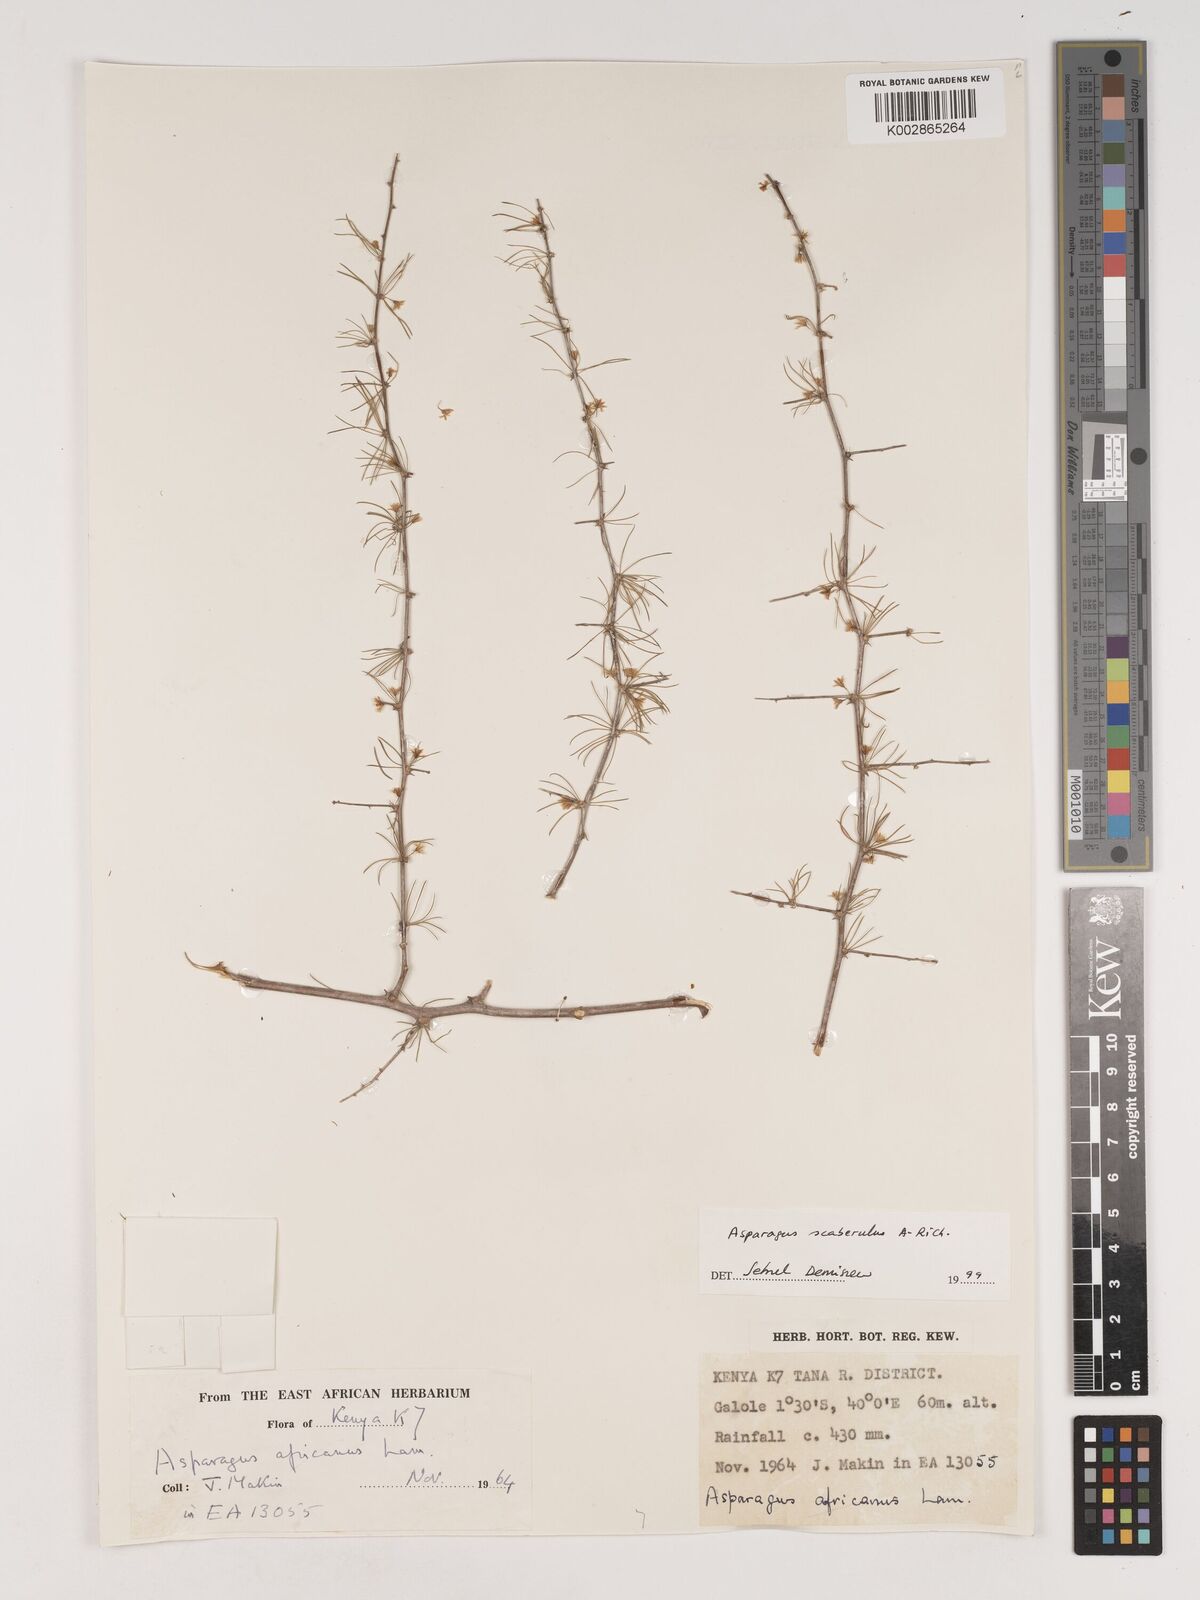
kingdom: Plantae
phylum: Tracheophyta
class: Liliopsida
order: Asparagales
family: Asparagaceae
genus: Asparagus
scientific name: Asparagus scaberulus
